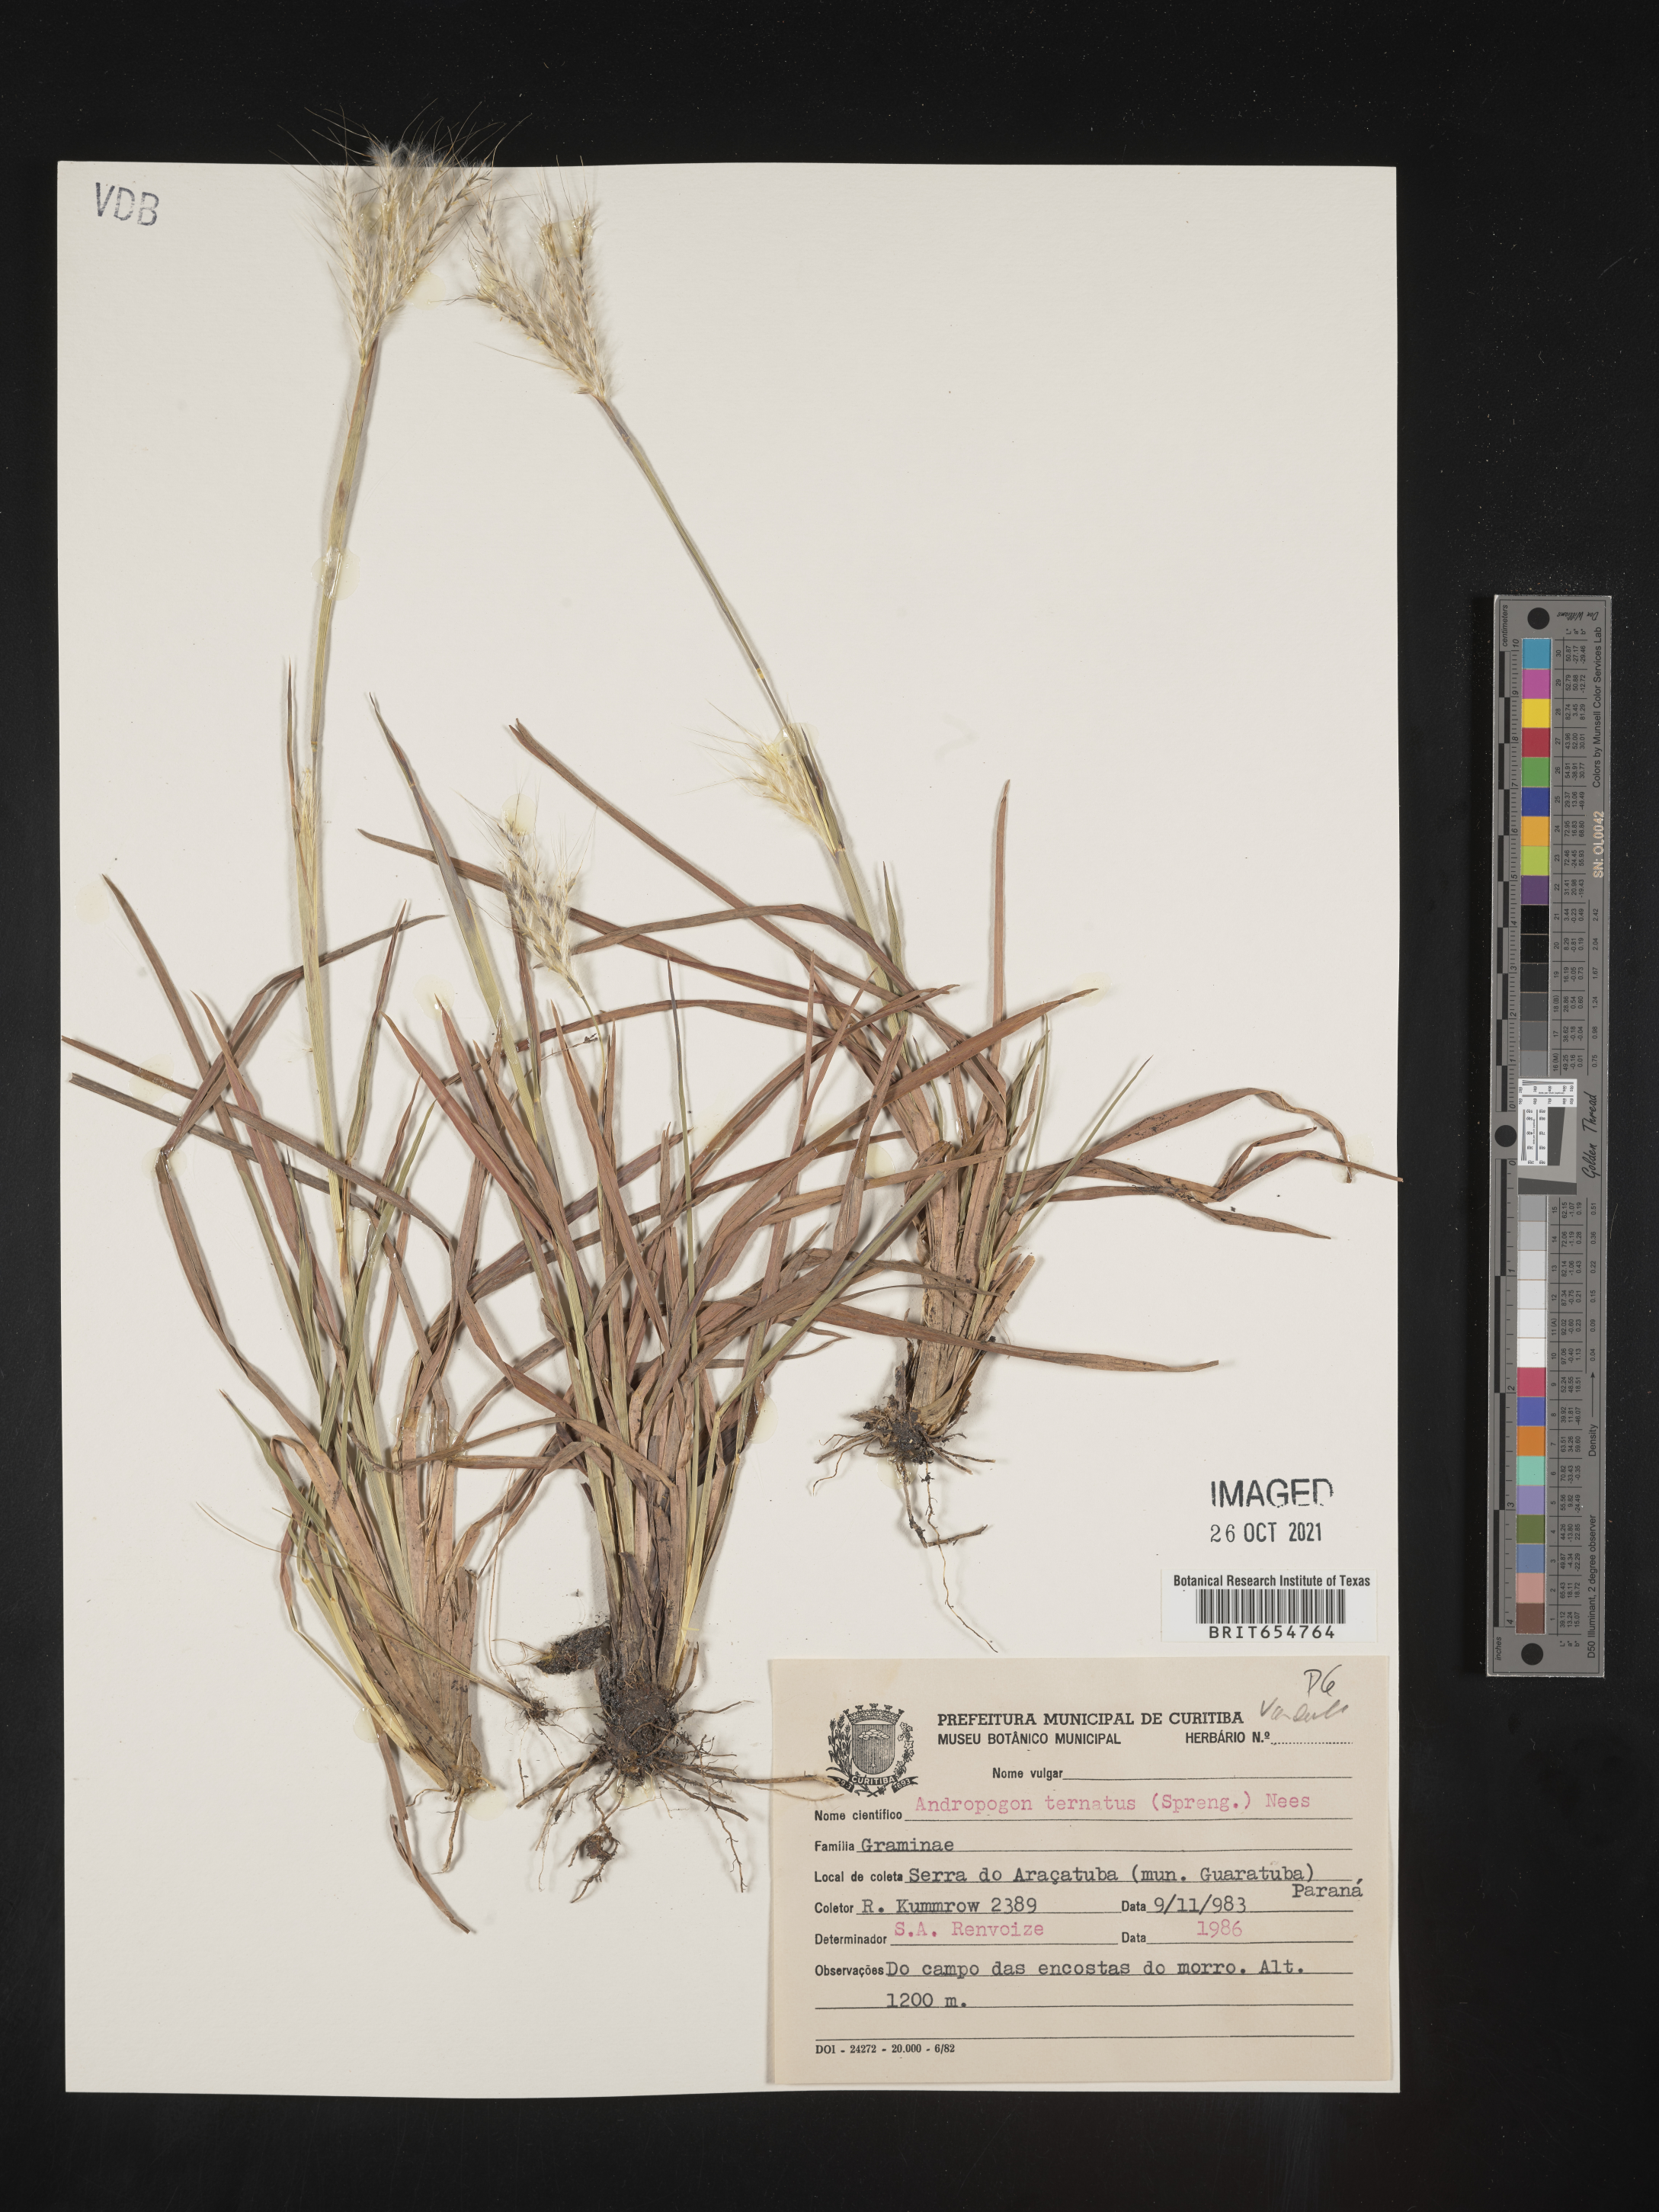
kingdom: Plantae
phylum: Tracheophyta
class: Liliopsida
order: Poales
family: Poaceae
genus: Andropogon
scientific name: Andropogon
